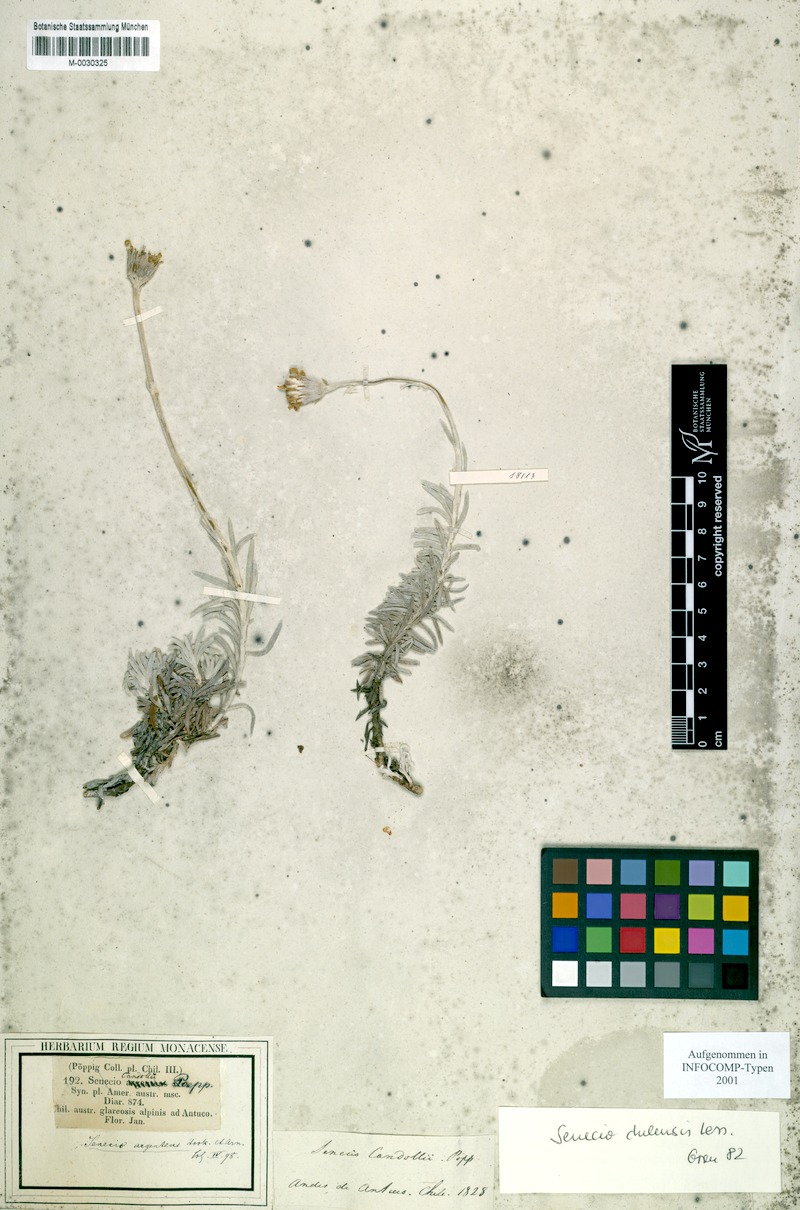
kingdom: Plantae
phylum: Tracheophyta
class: Magnoliopsida
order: Asterales
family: Asteraceae
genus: Senecio
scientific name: Senecio chilensis
